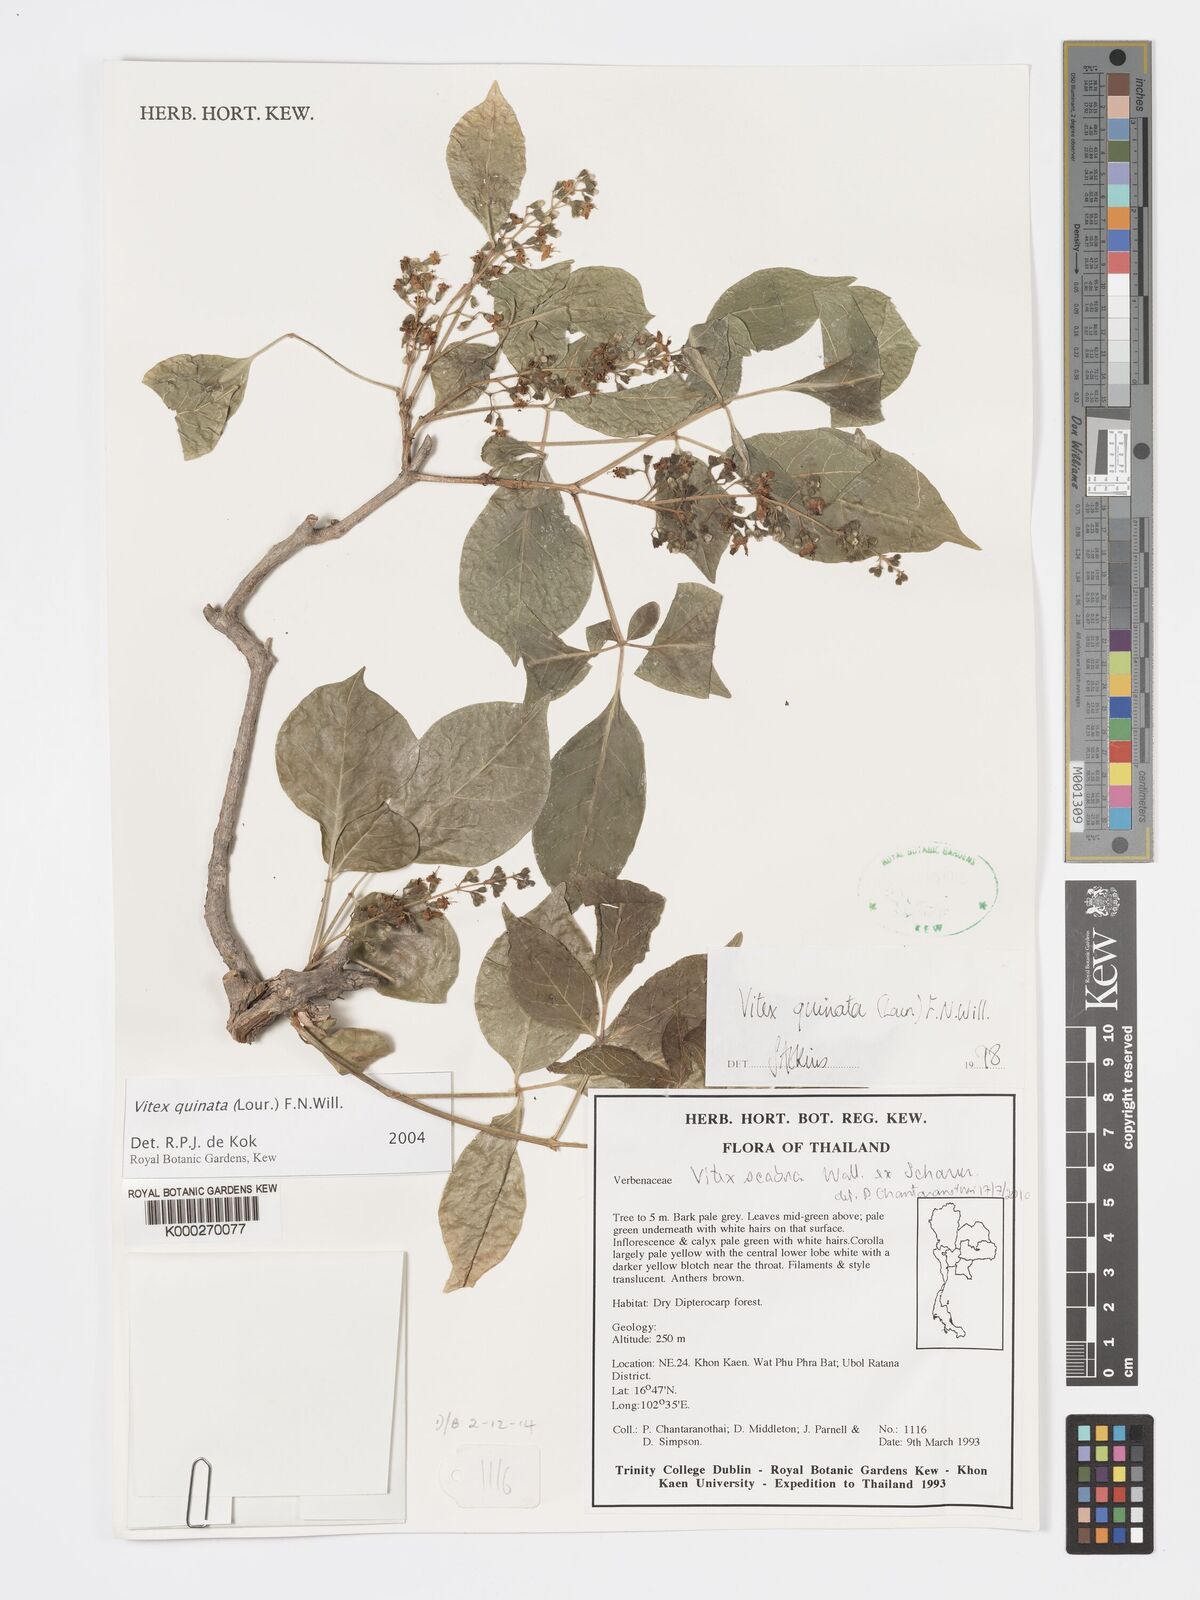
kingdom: Plantae
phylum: Tracheophyta
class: Magnoliopsida
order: Lamiales
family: Lamiaceae
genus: Vitex
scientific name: Vitex quinata
